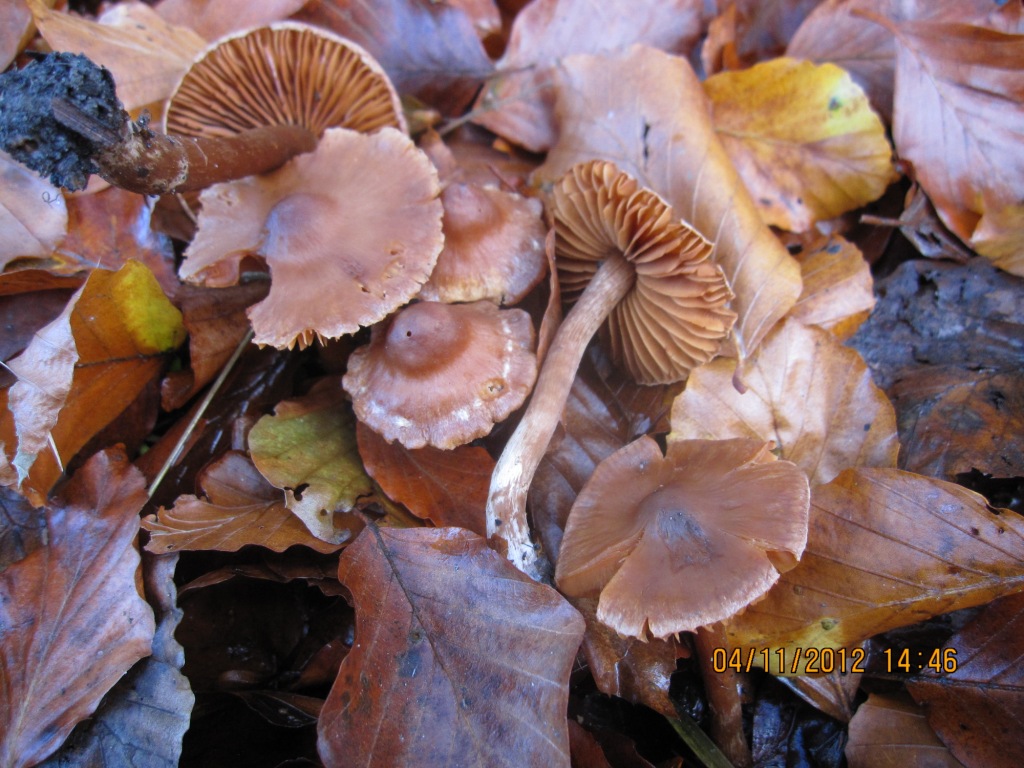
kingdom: Fungi
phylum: Basidiomycota
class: Agaricomycetes
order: Agaricales
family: Cortinariaceae
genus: Cortinarius
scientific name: Cortinarius
